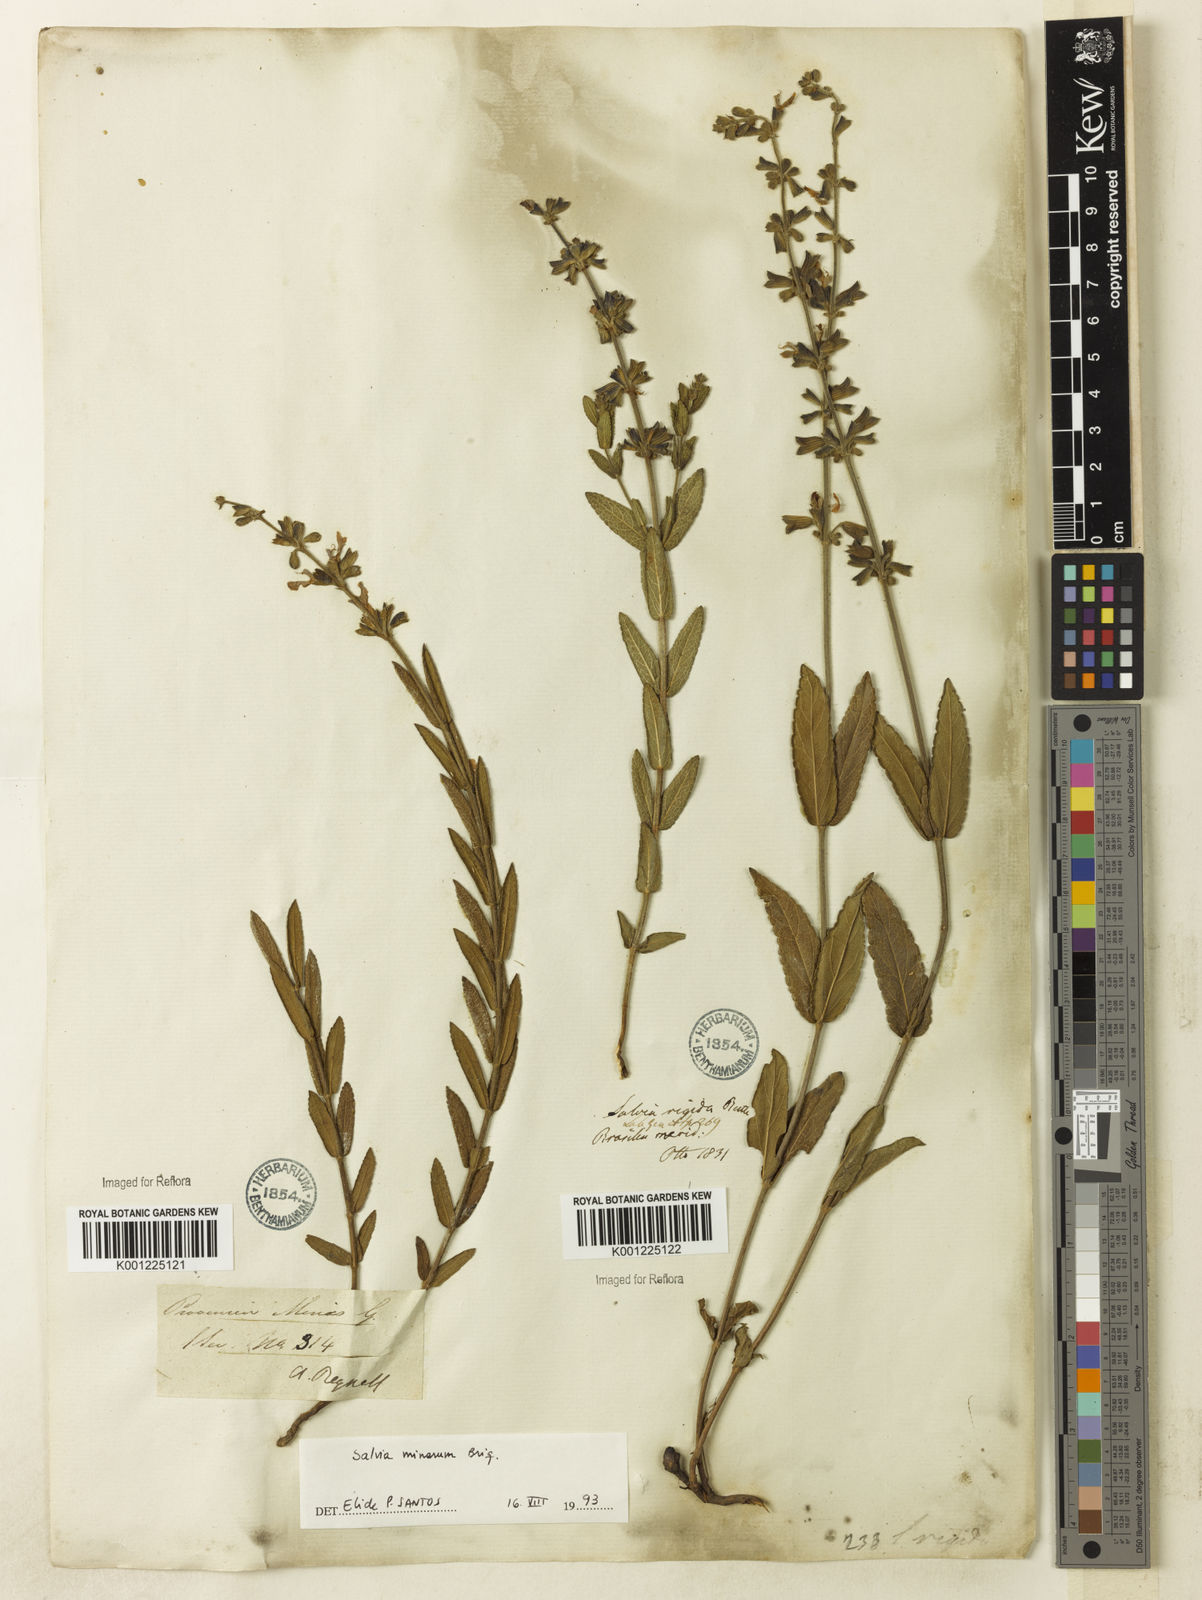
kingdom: Plantae
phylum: Tracheophyta
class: Magnoliopsida
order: Lamiales
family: Lamiaceae
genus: Salvia
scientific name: Salvia minarum
